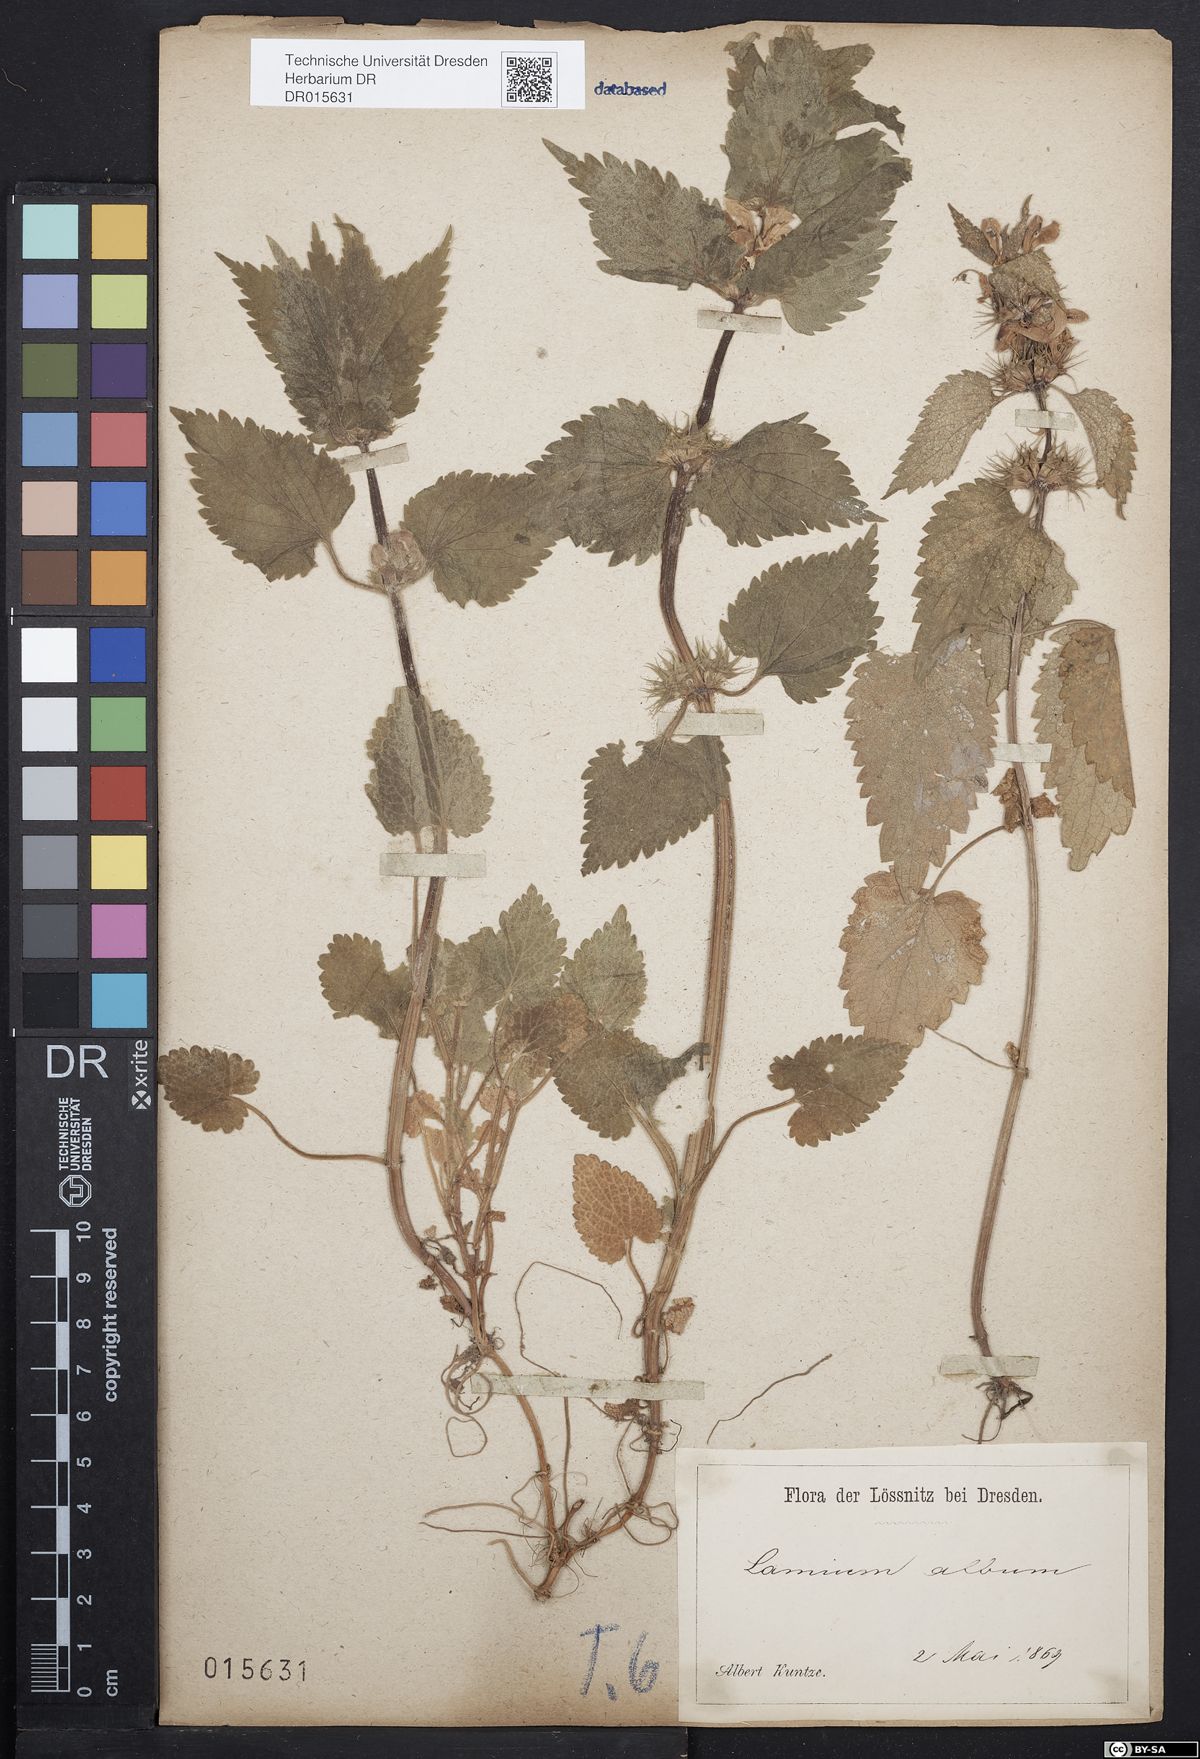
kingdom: Plantae
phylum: Tracheophyta
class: Magnoliopsida
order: Lamiales
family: Lamiaceae
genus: Lamium
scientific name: Lamium album
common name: White dead-nettle
